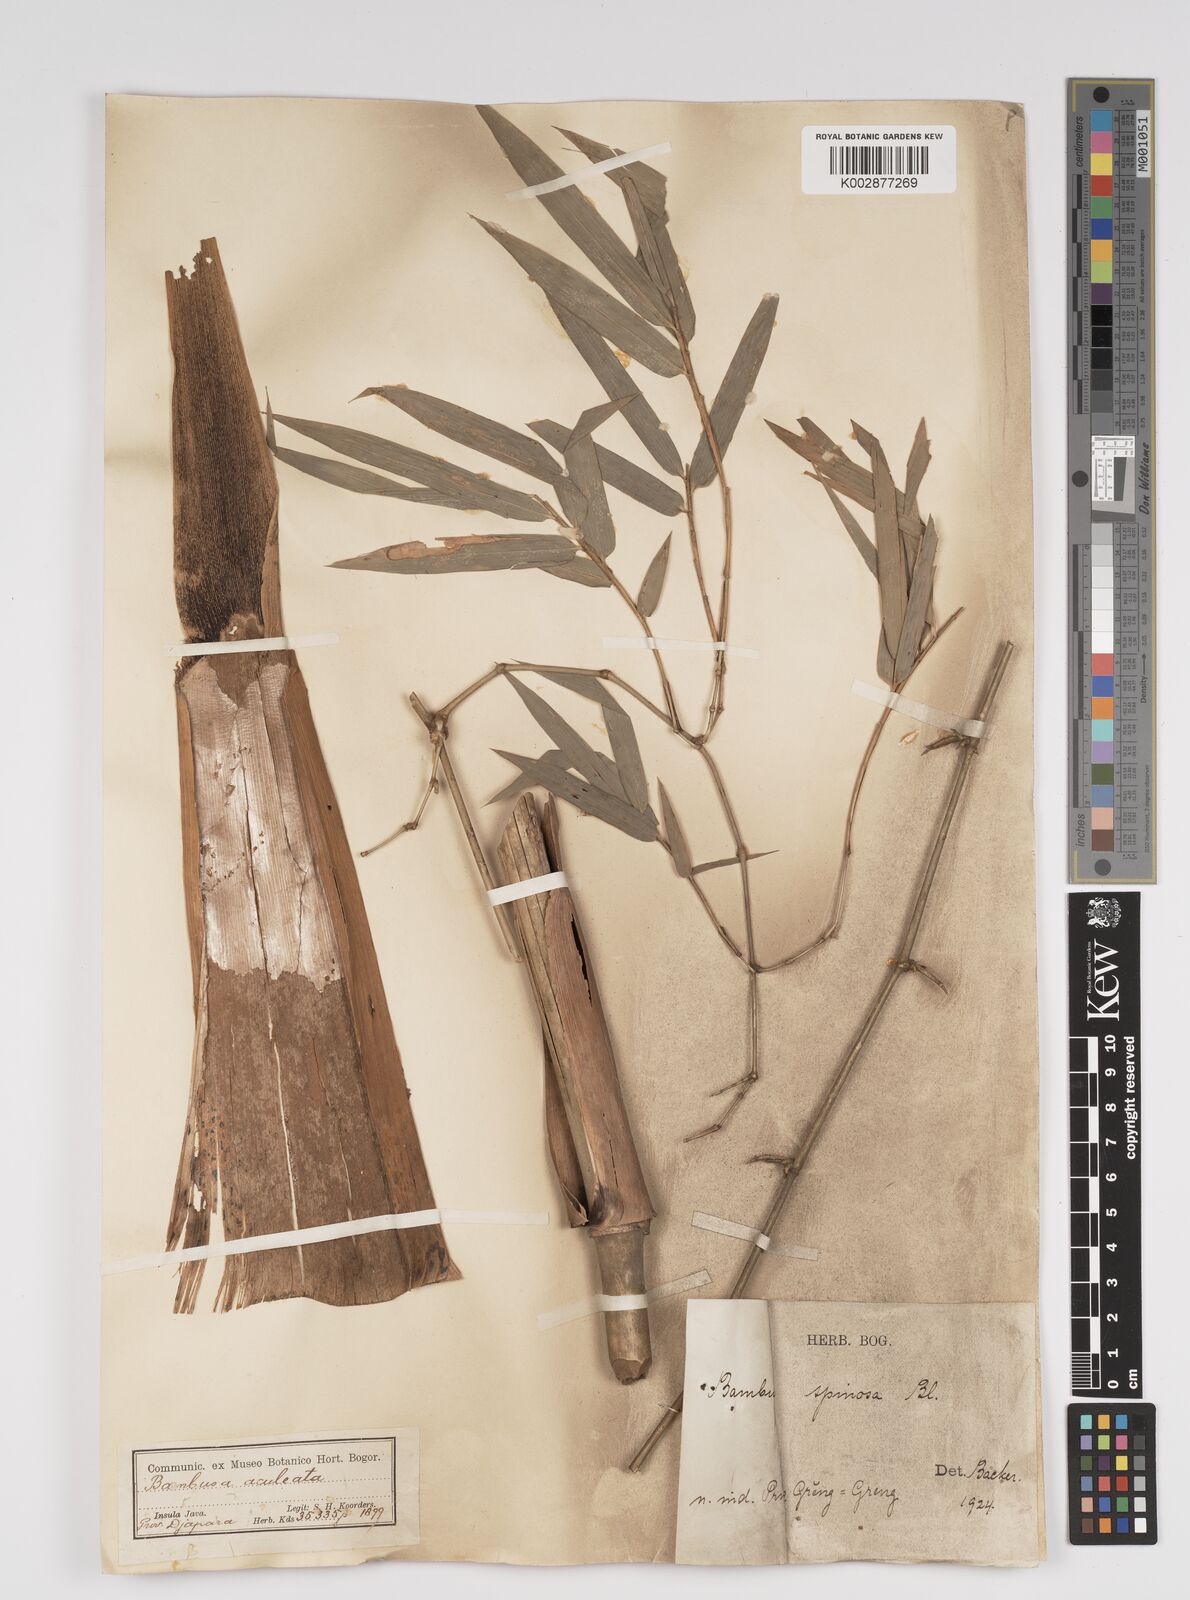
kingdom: Plantae
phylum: Tracheophyta
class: Liliopsida
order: Poales
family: Poaceae
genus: Bambusa
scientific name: Bambusa spinosa
